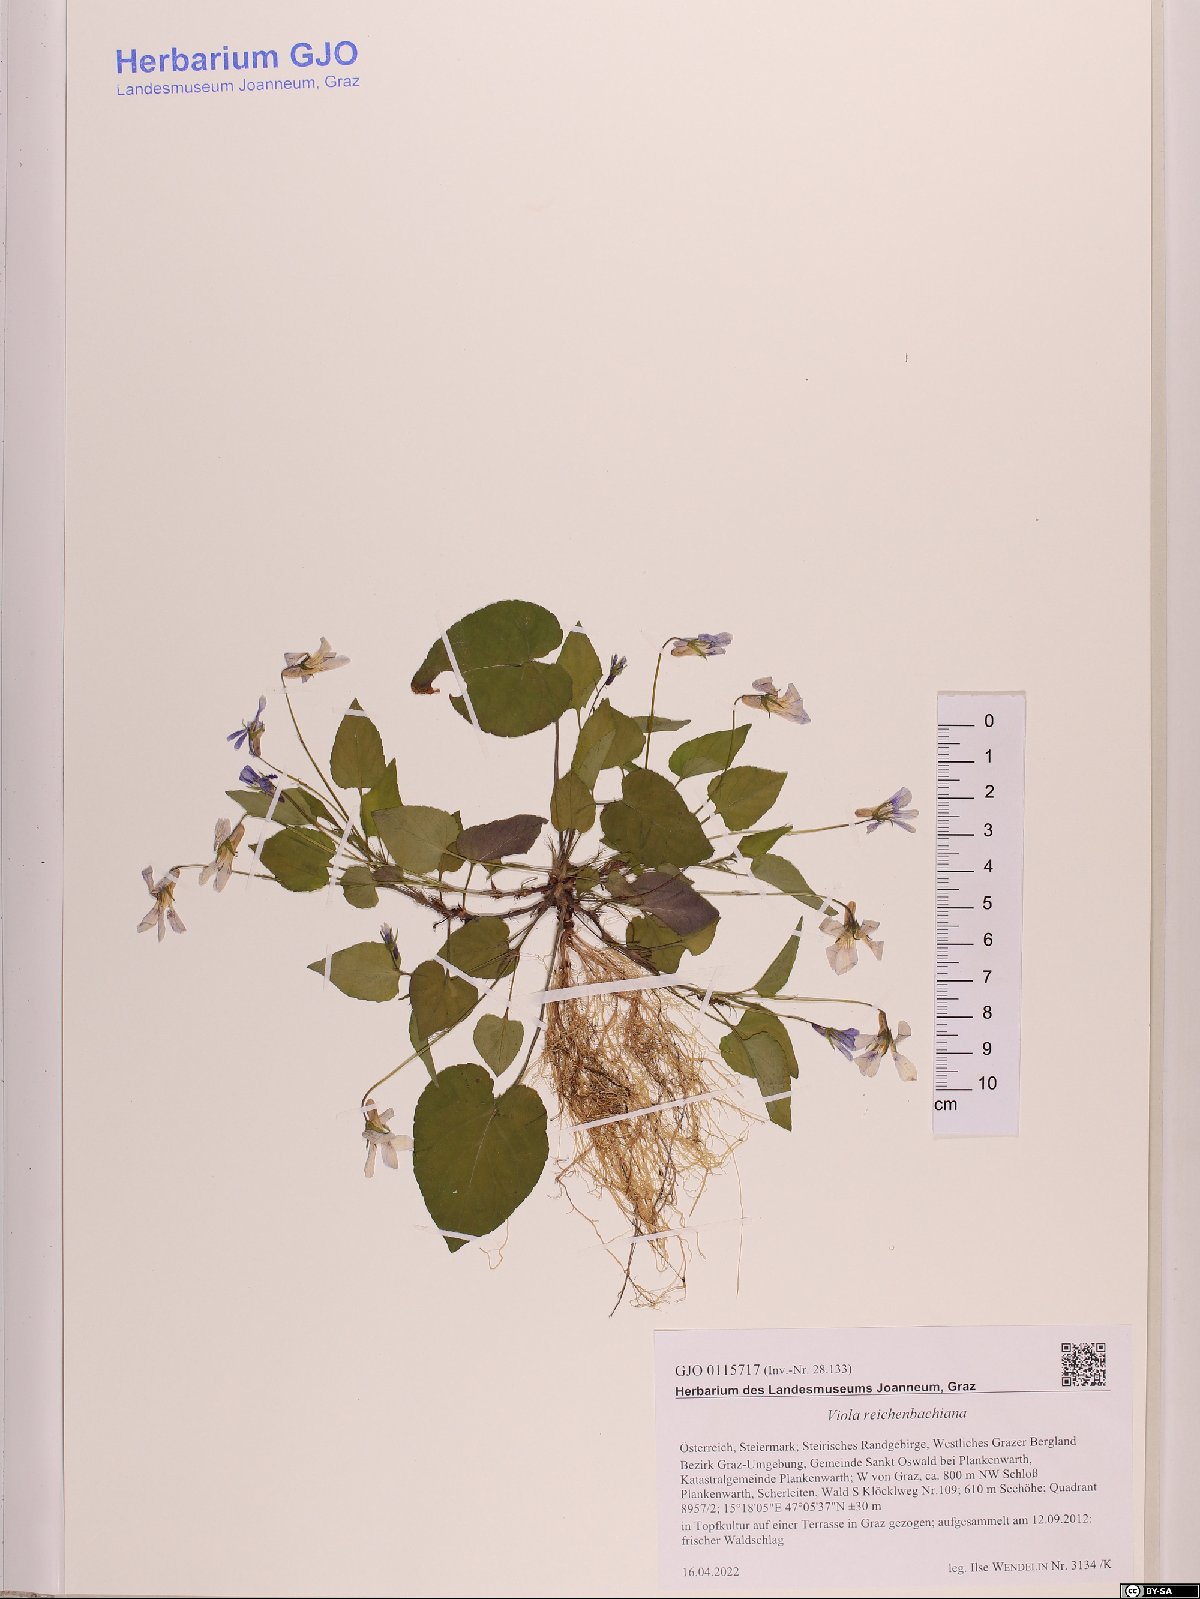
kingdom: Plantae
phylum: Tracheophyta
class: Magnoliopsida
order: Malpighiales
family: Violaceae
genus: Viola
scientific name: Viola reichenbachiana
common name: Early dog-violet
